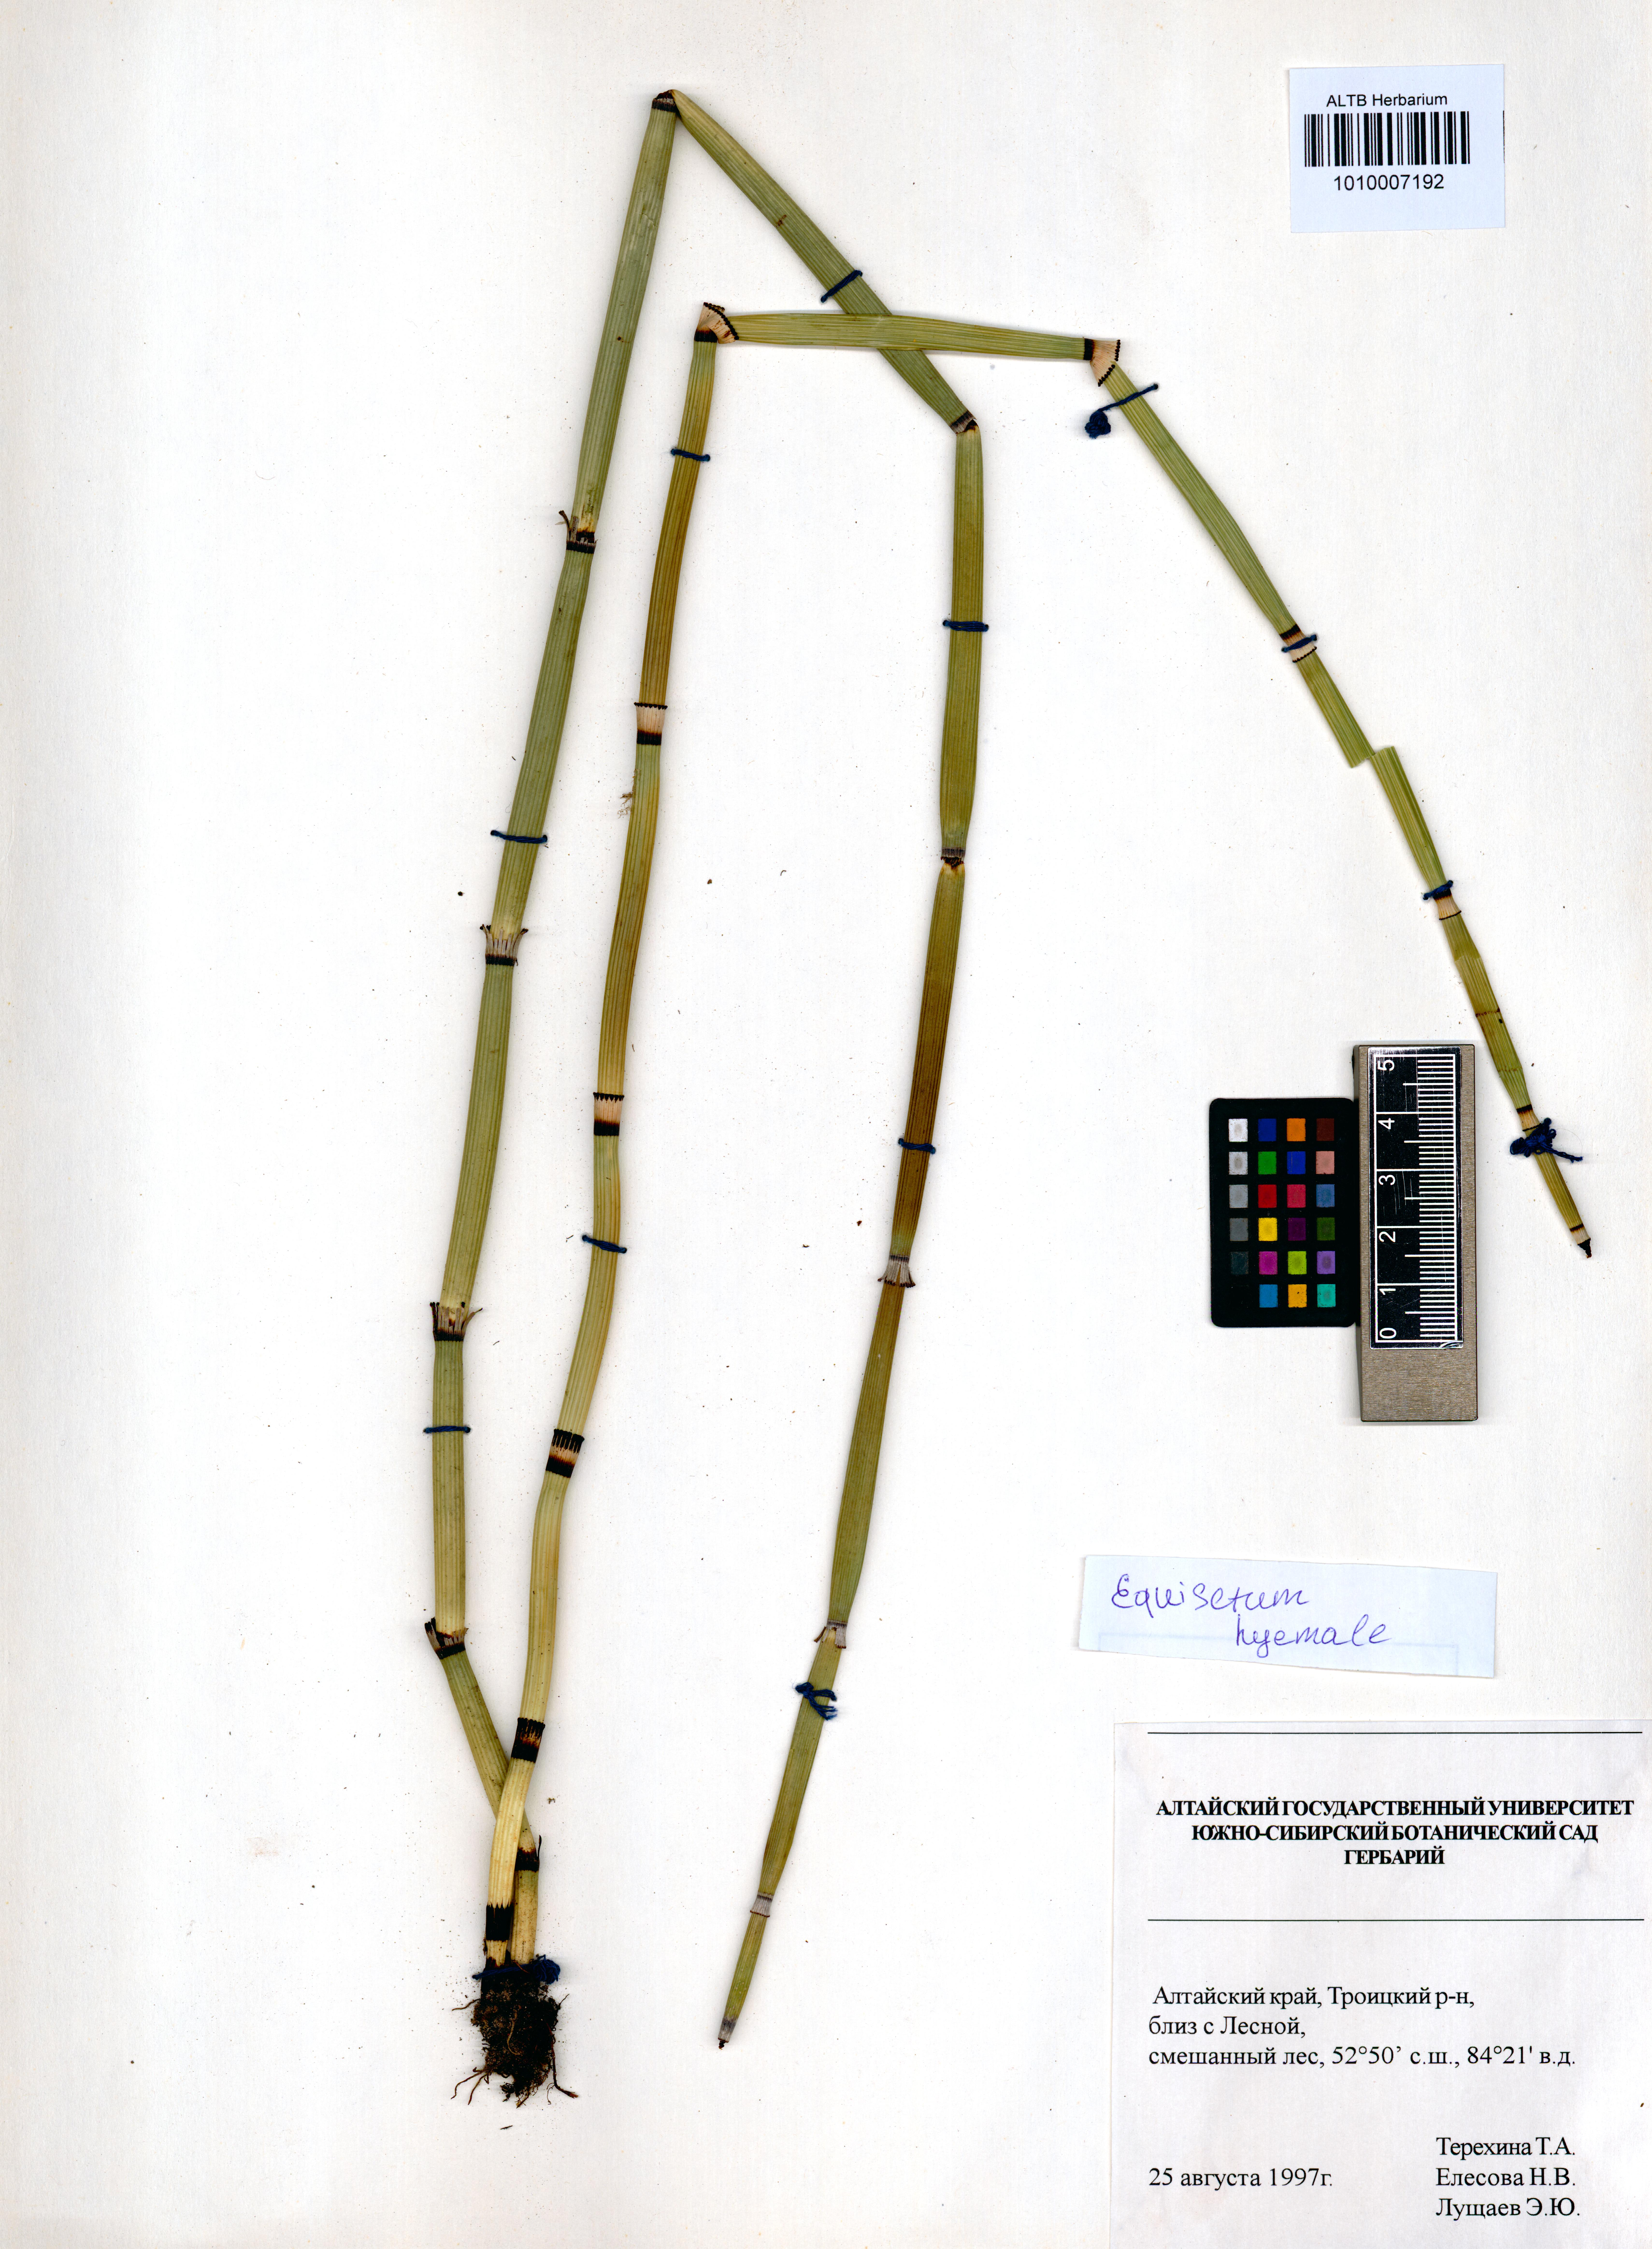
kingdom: Plantae
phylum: Tracheophyta
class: Polypodiopsida
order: Equisetales
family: Equisetaceae
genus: Equisetum
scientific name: Equisetum hyemale
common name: Rough horsetail
